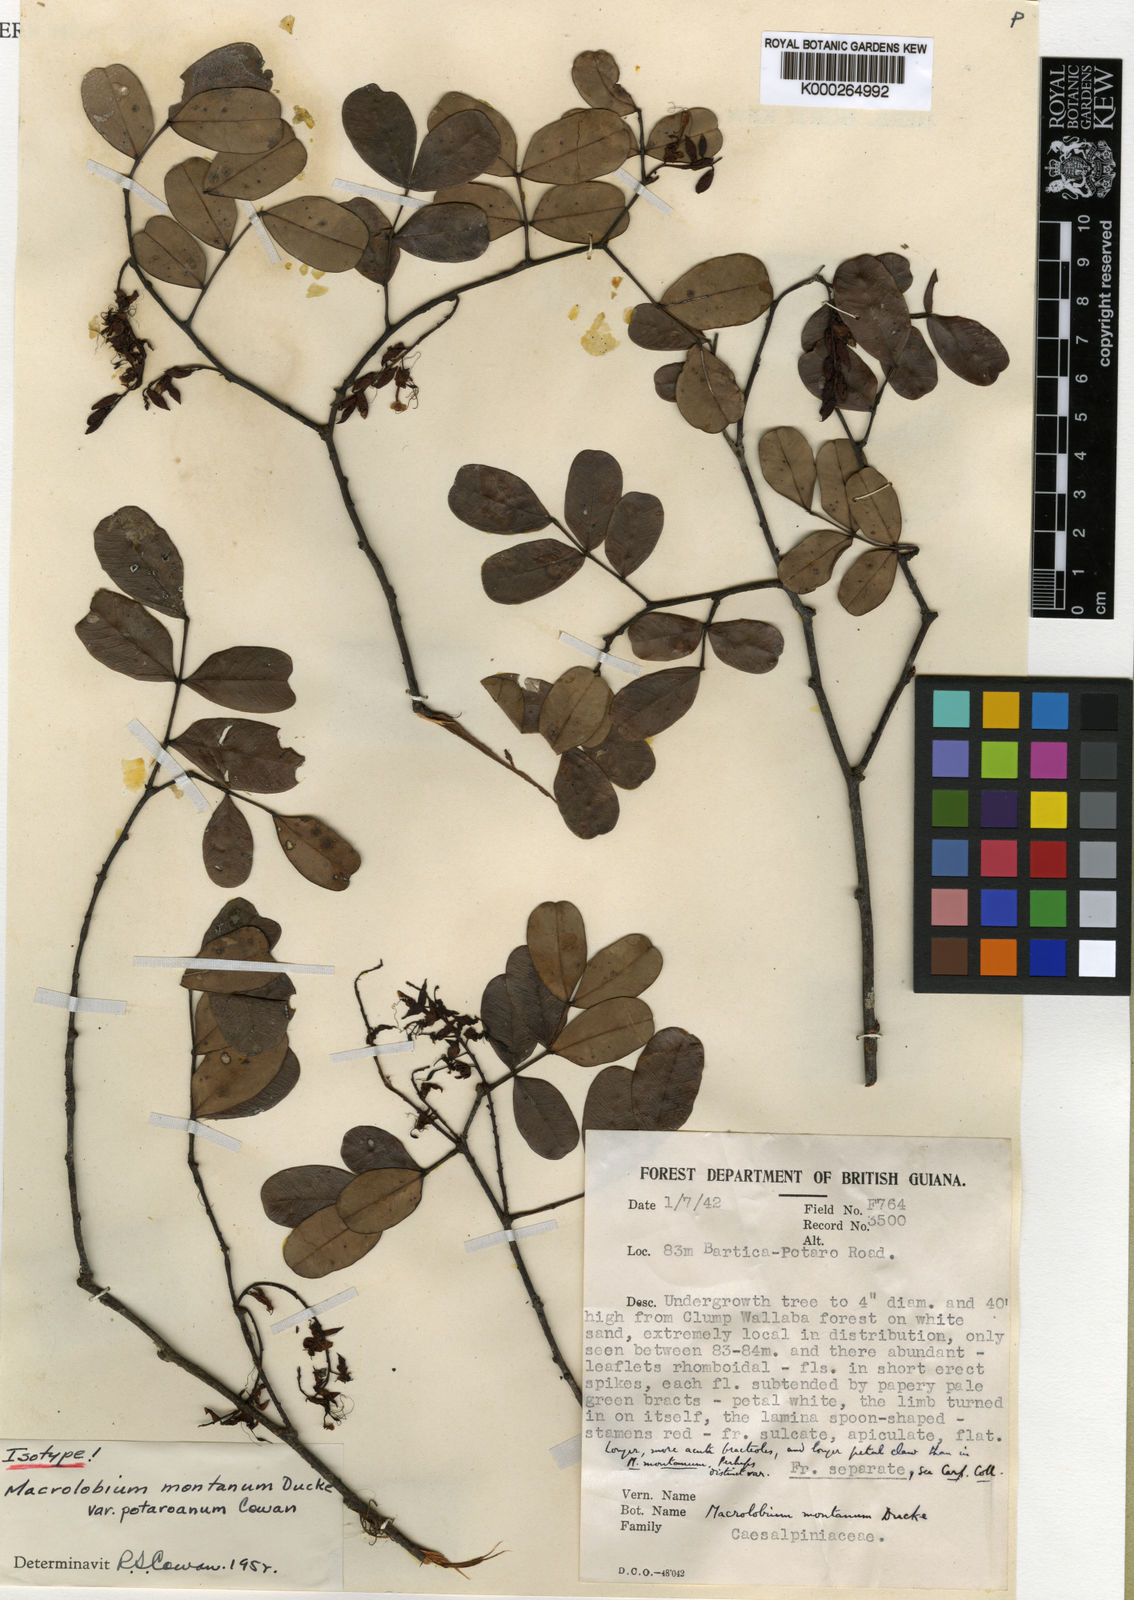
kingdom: Plantae
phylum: Tracheophyta
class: Magnoliopsida
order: Fabales
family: Fabaceae
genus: Macrolobium
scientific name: Macrolobium montanum
